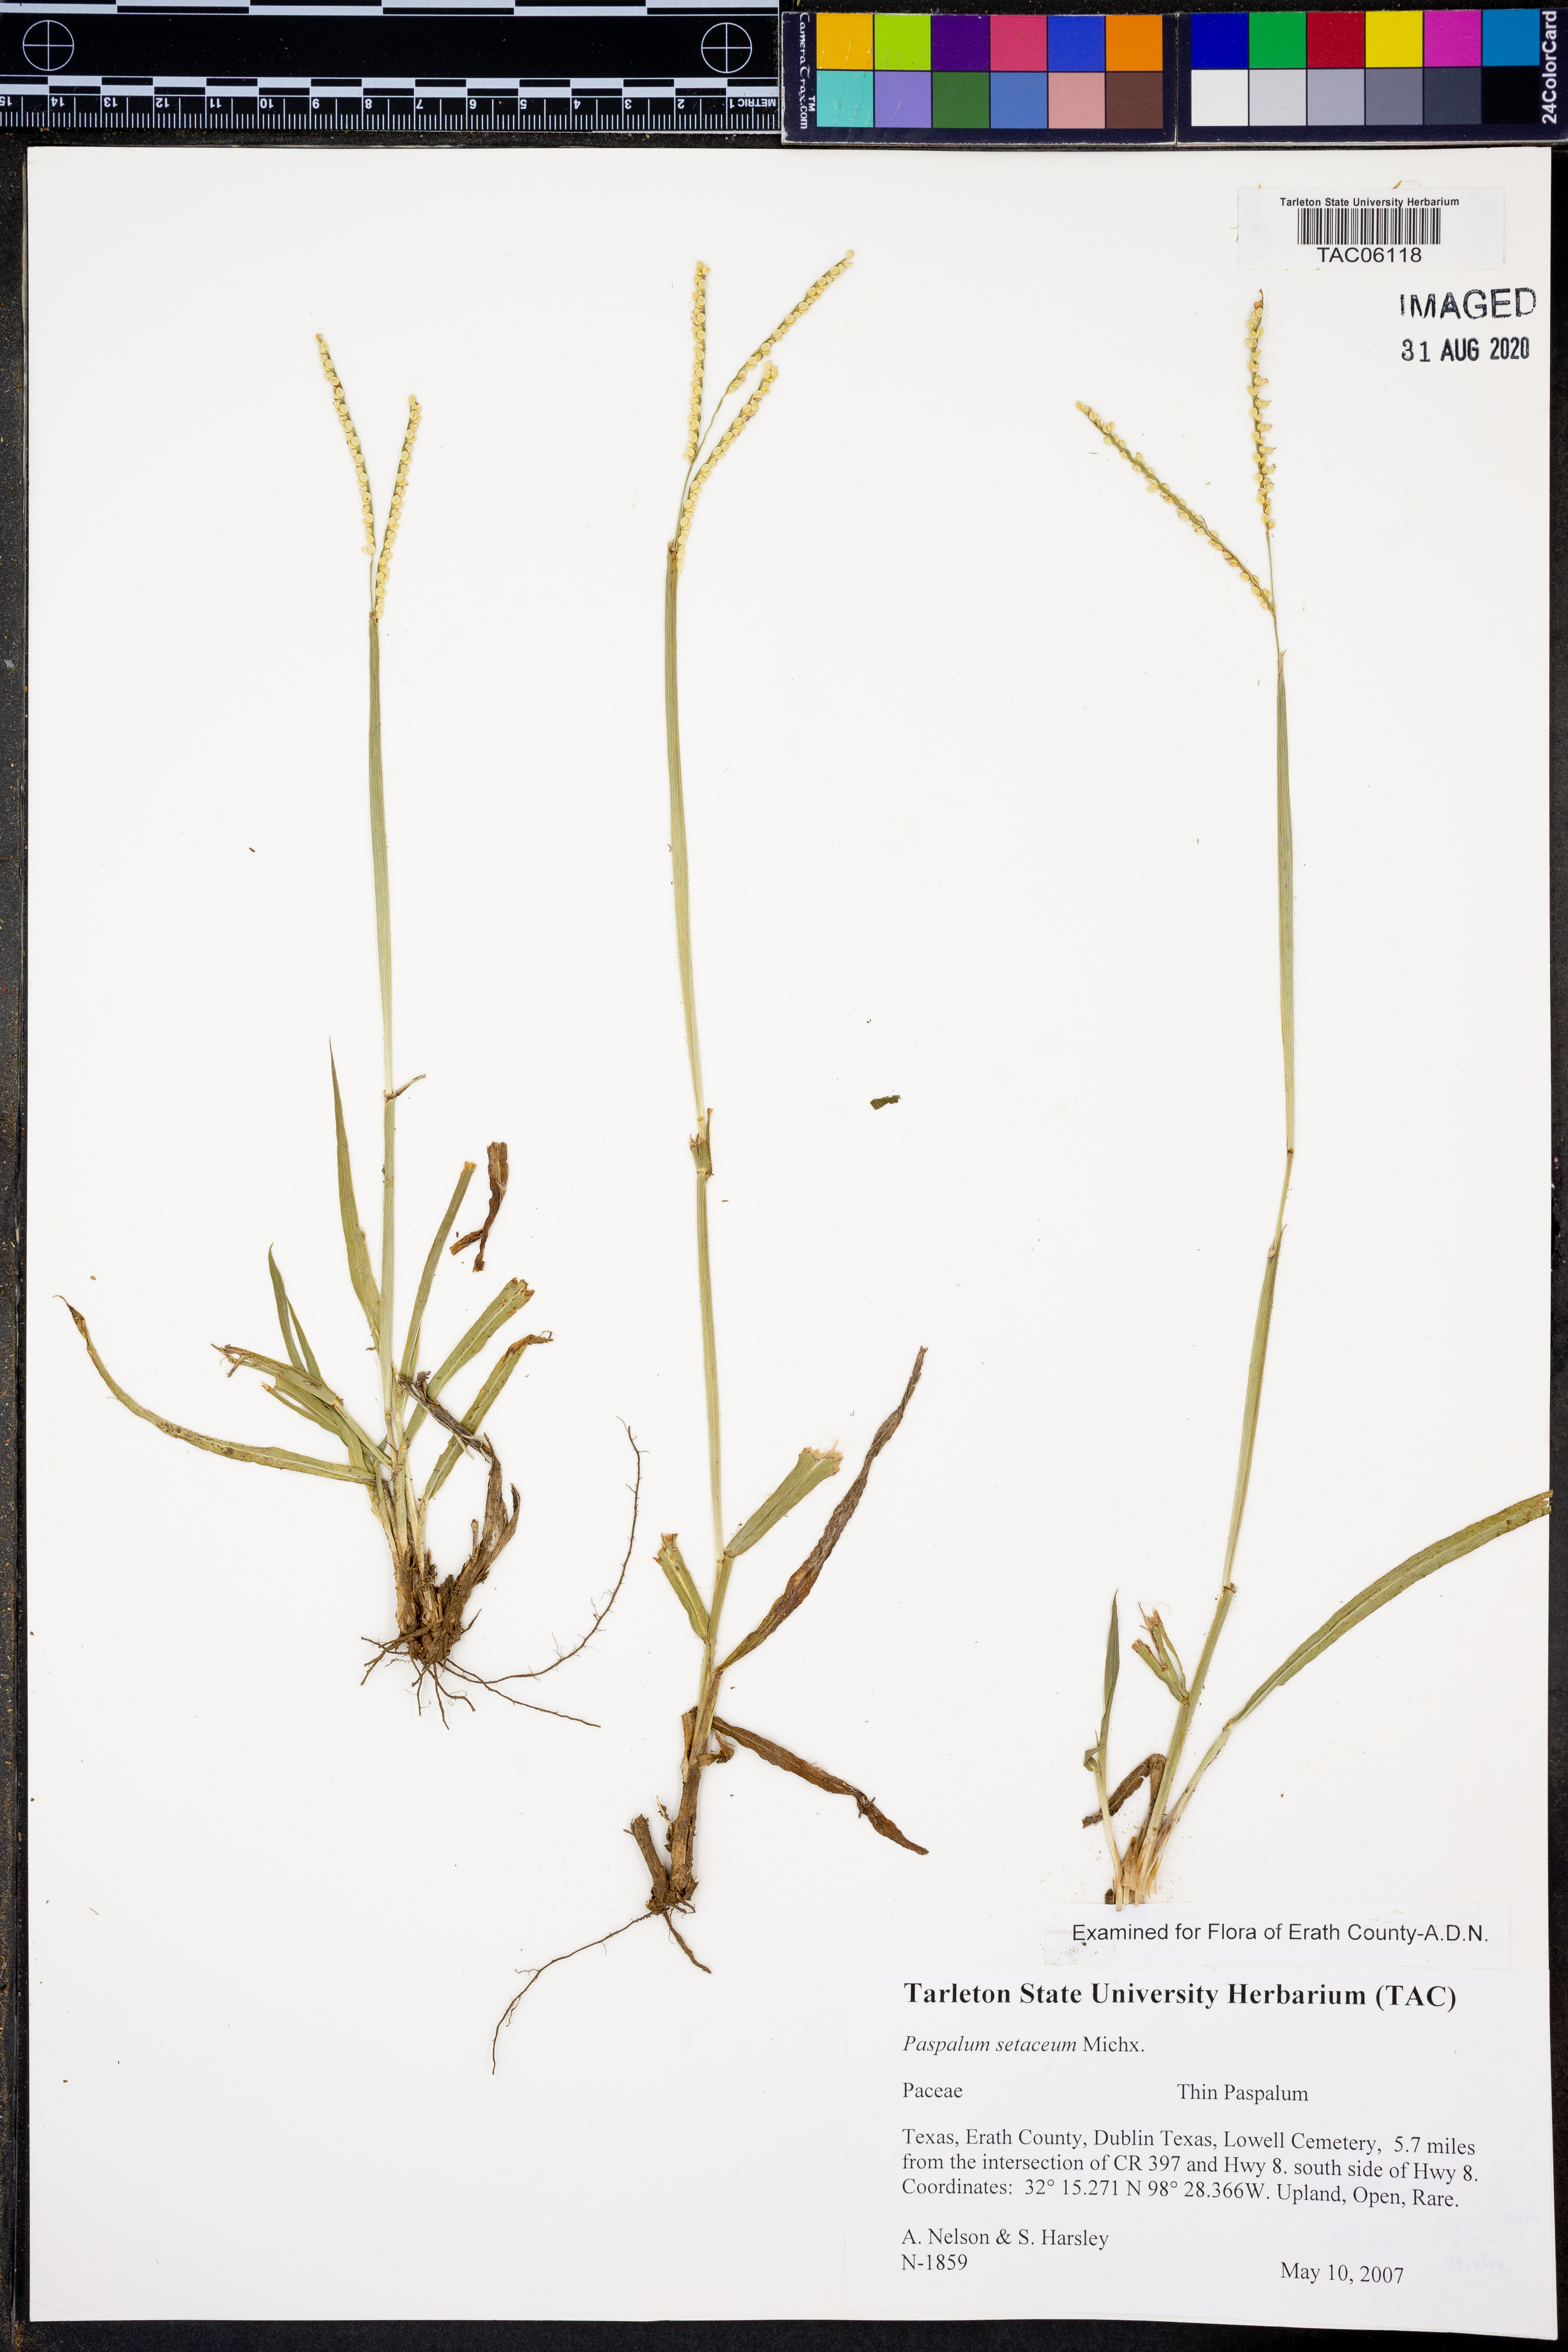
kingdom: Plantae
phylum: Tracheophyta
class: Liliopsida
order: Poales
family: Poaceae
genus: Paspalum
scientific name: Paspalum setaceum
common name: Slender paspalum
